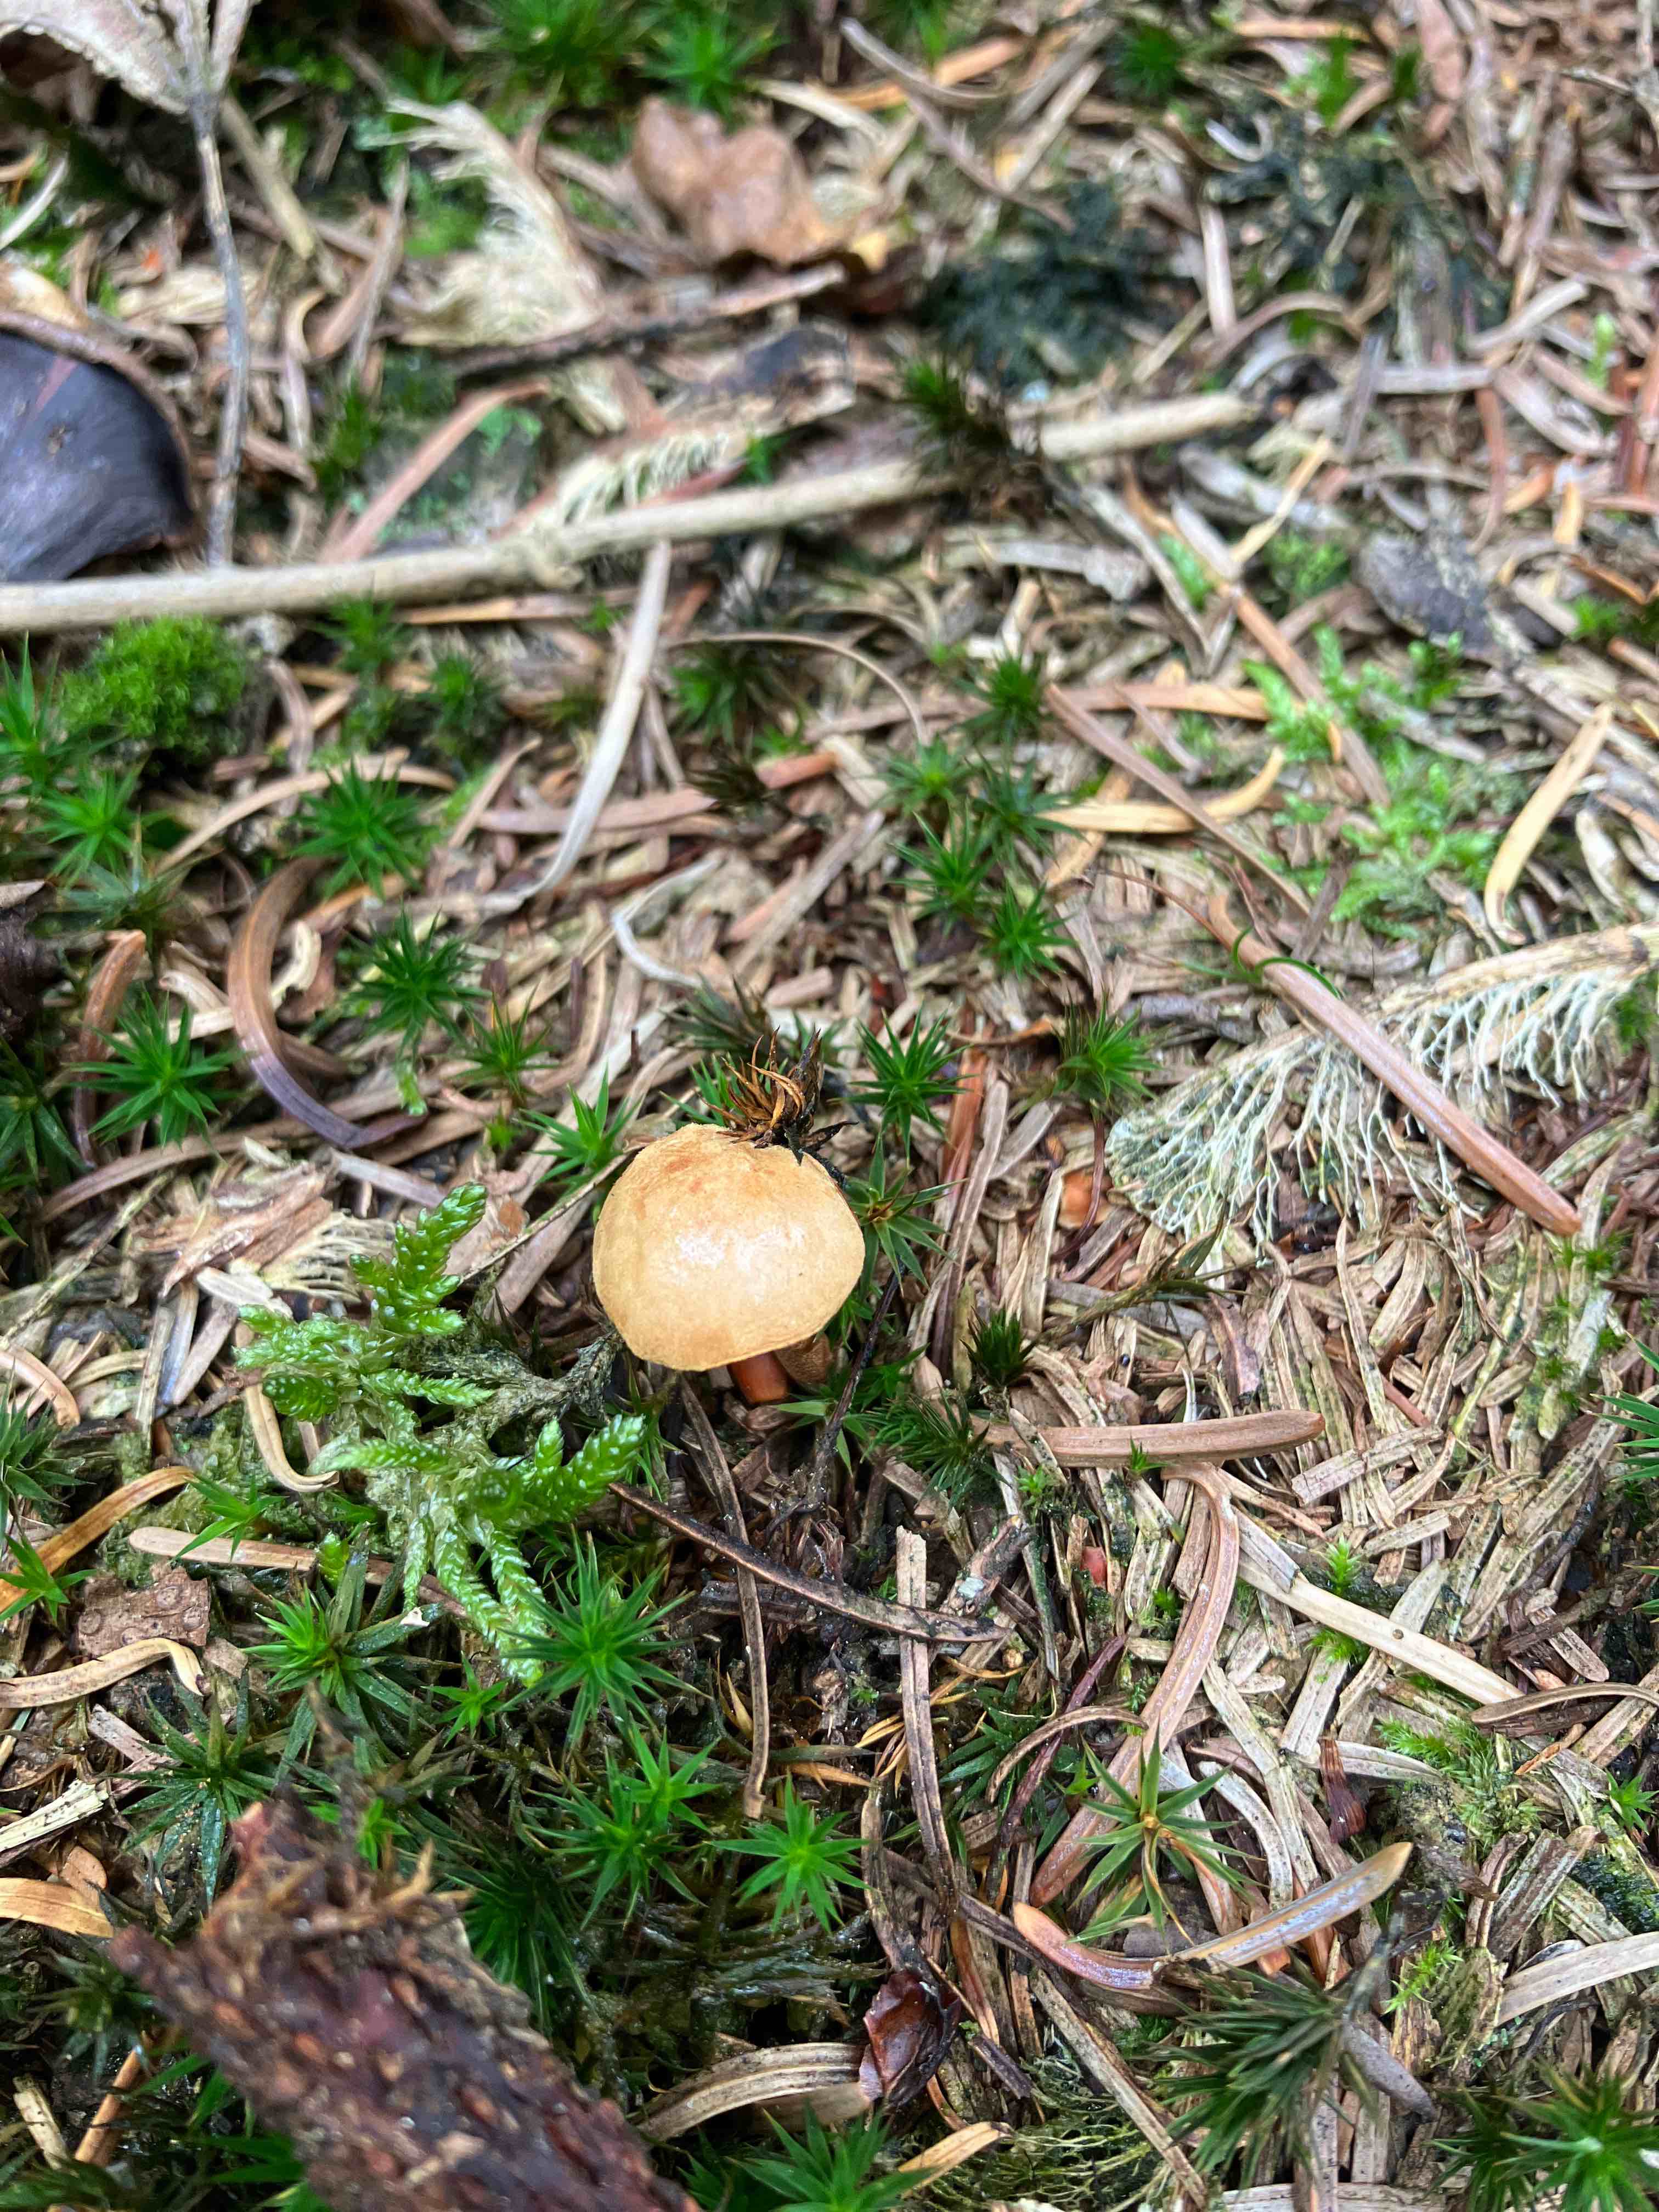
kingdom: Plantae
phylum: Bryophyta
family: Agaricomycetidae
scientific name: Agaricomycetidae
